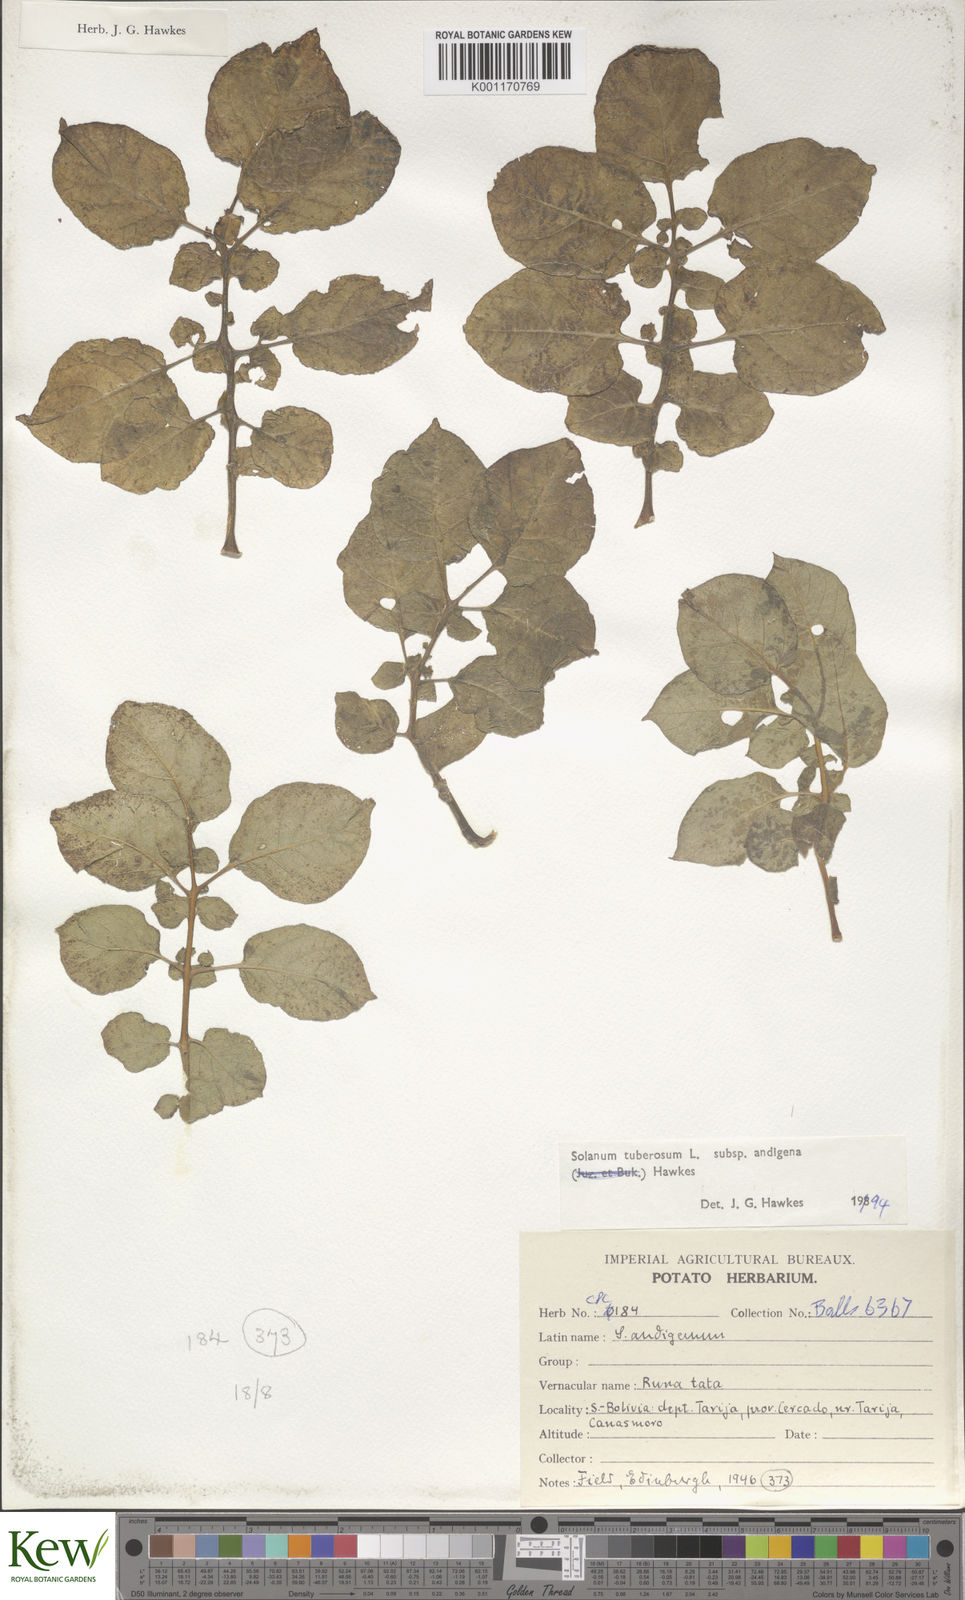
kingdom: Plantae
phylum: Tracheophyta
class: Magnoliopsida
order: Solanales
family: Solanaceae
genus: Solanum
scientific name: Solanum tuberosum
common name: Potato
